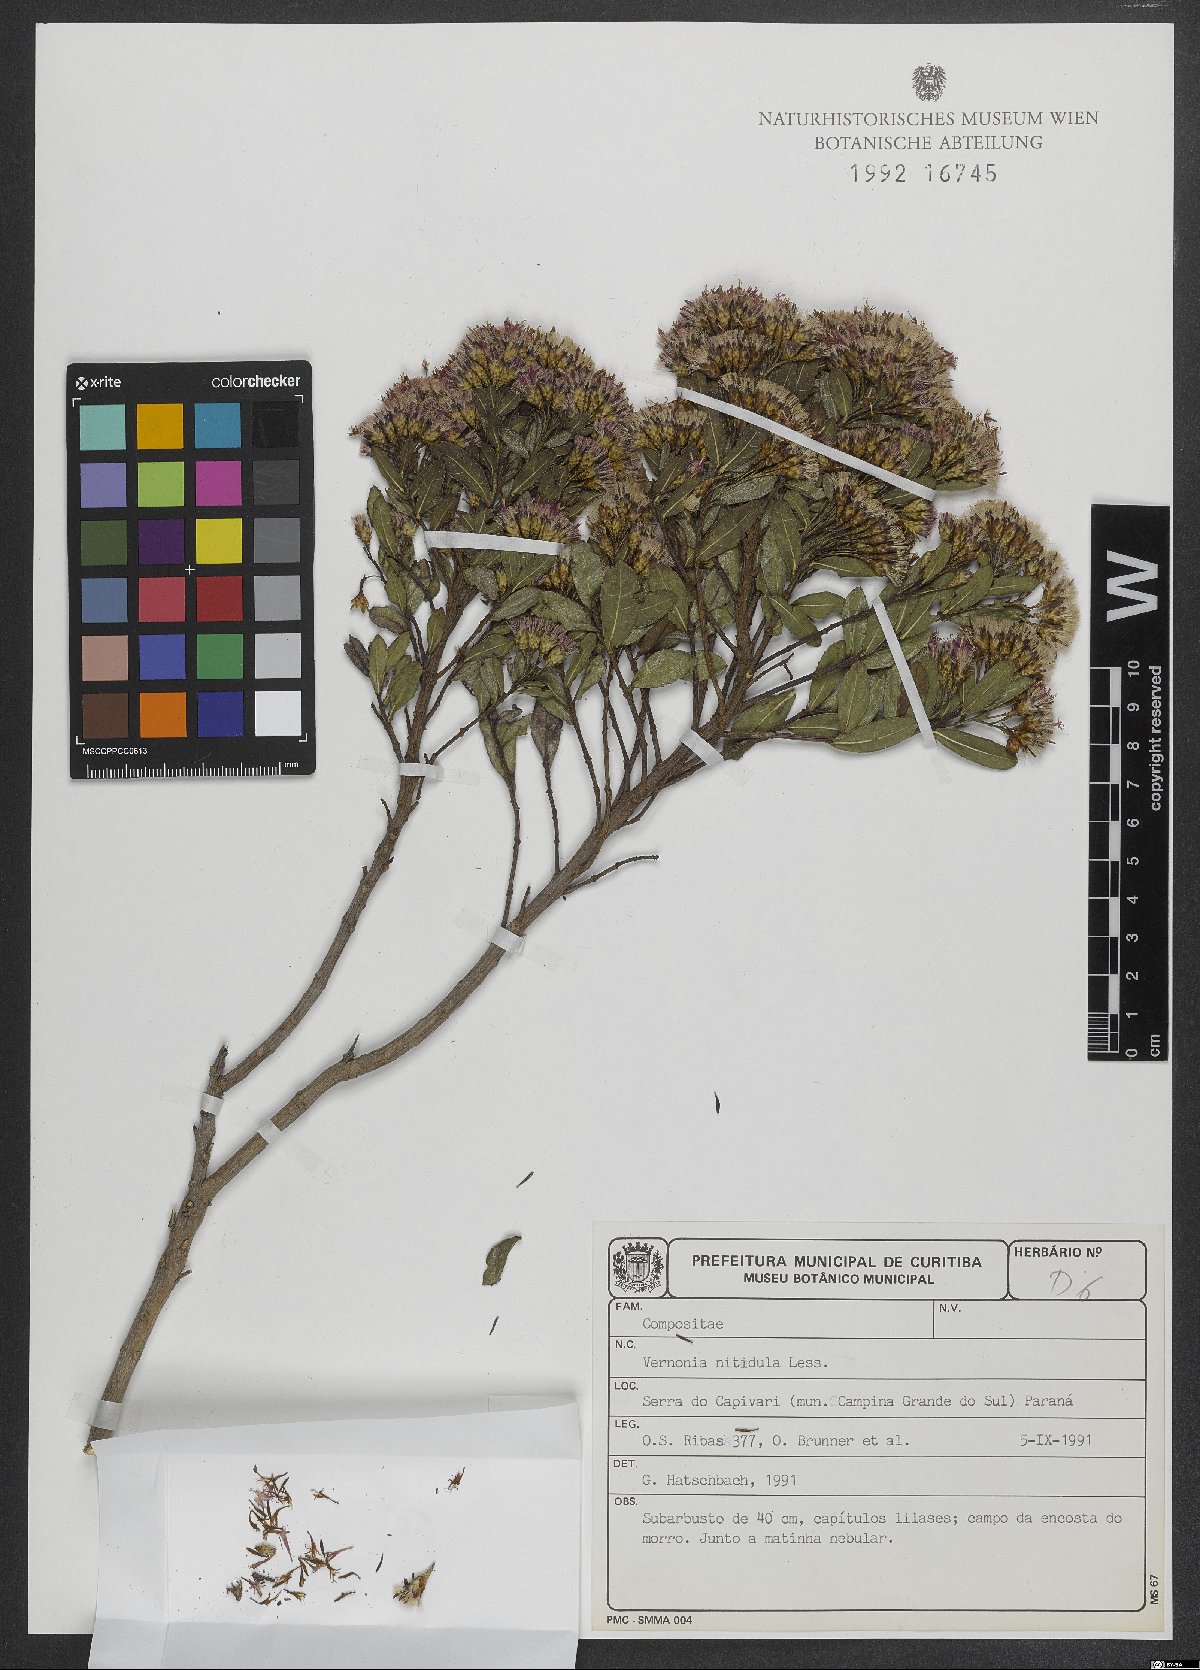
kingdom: Plantae
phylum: Tracheophyta
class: Magnoliopsida
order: Asterales
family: Asteraceae
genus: Vernonanthura
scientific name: Vernonanthura montevidensis
